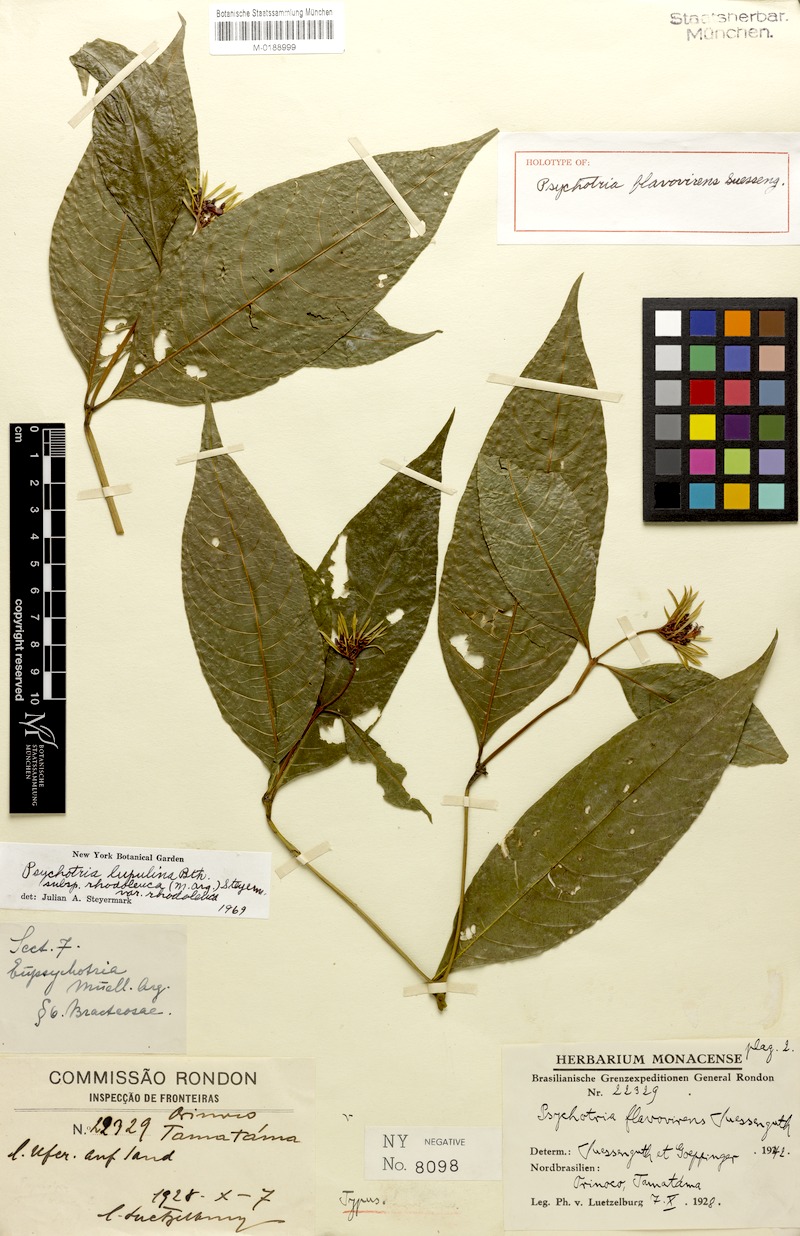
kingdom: Plantae
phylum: Tracheophyta
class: Magnoliopsida
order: Gentianales
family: Rubiaceae
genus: Palicourea
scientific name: Palicourea justiciifolia
